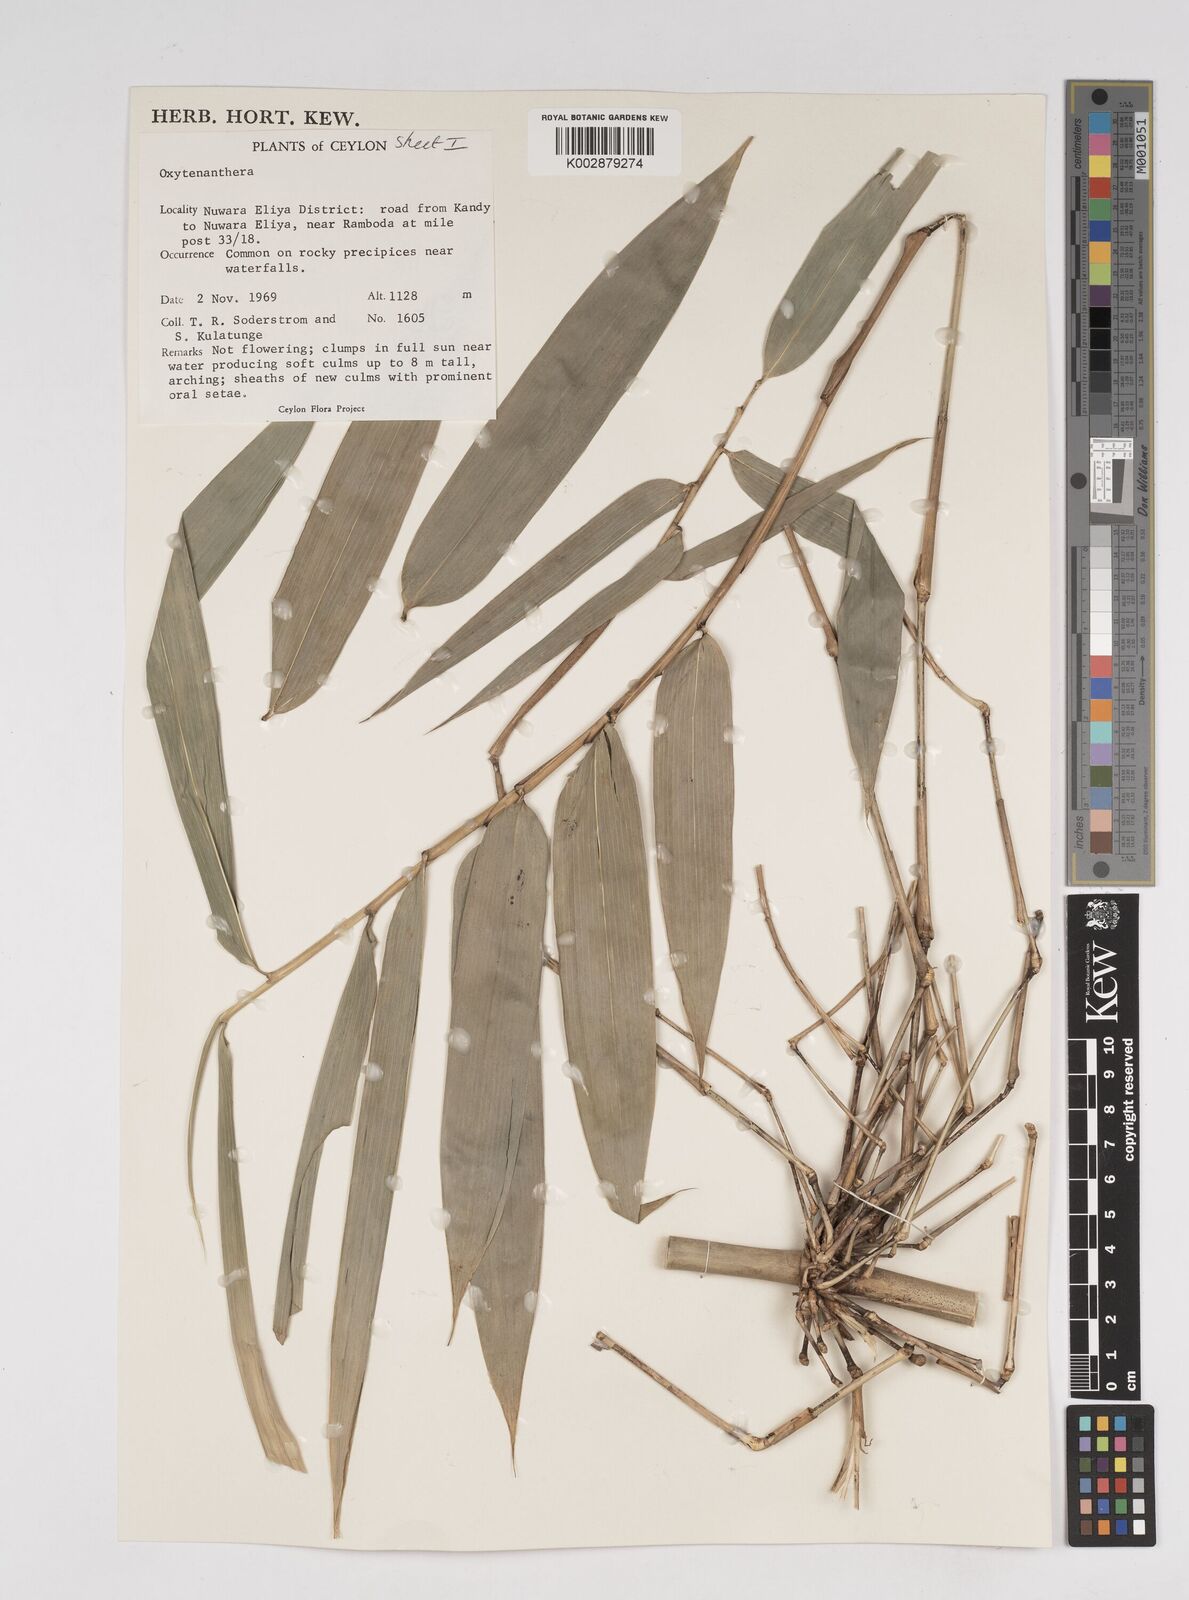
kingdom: Plantae
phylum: Tracheophyta
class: Liliopsida
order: Poales
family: Poaceae
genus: Dendrocalamus
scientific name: Dendrocalamus
